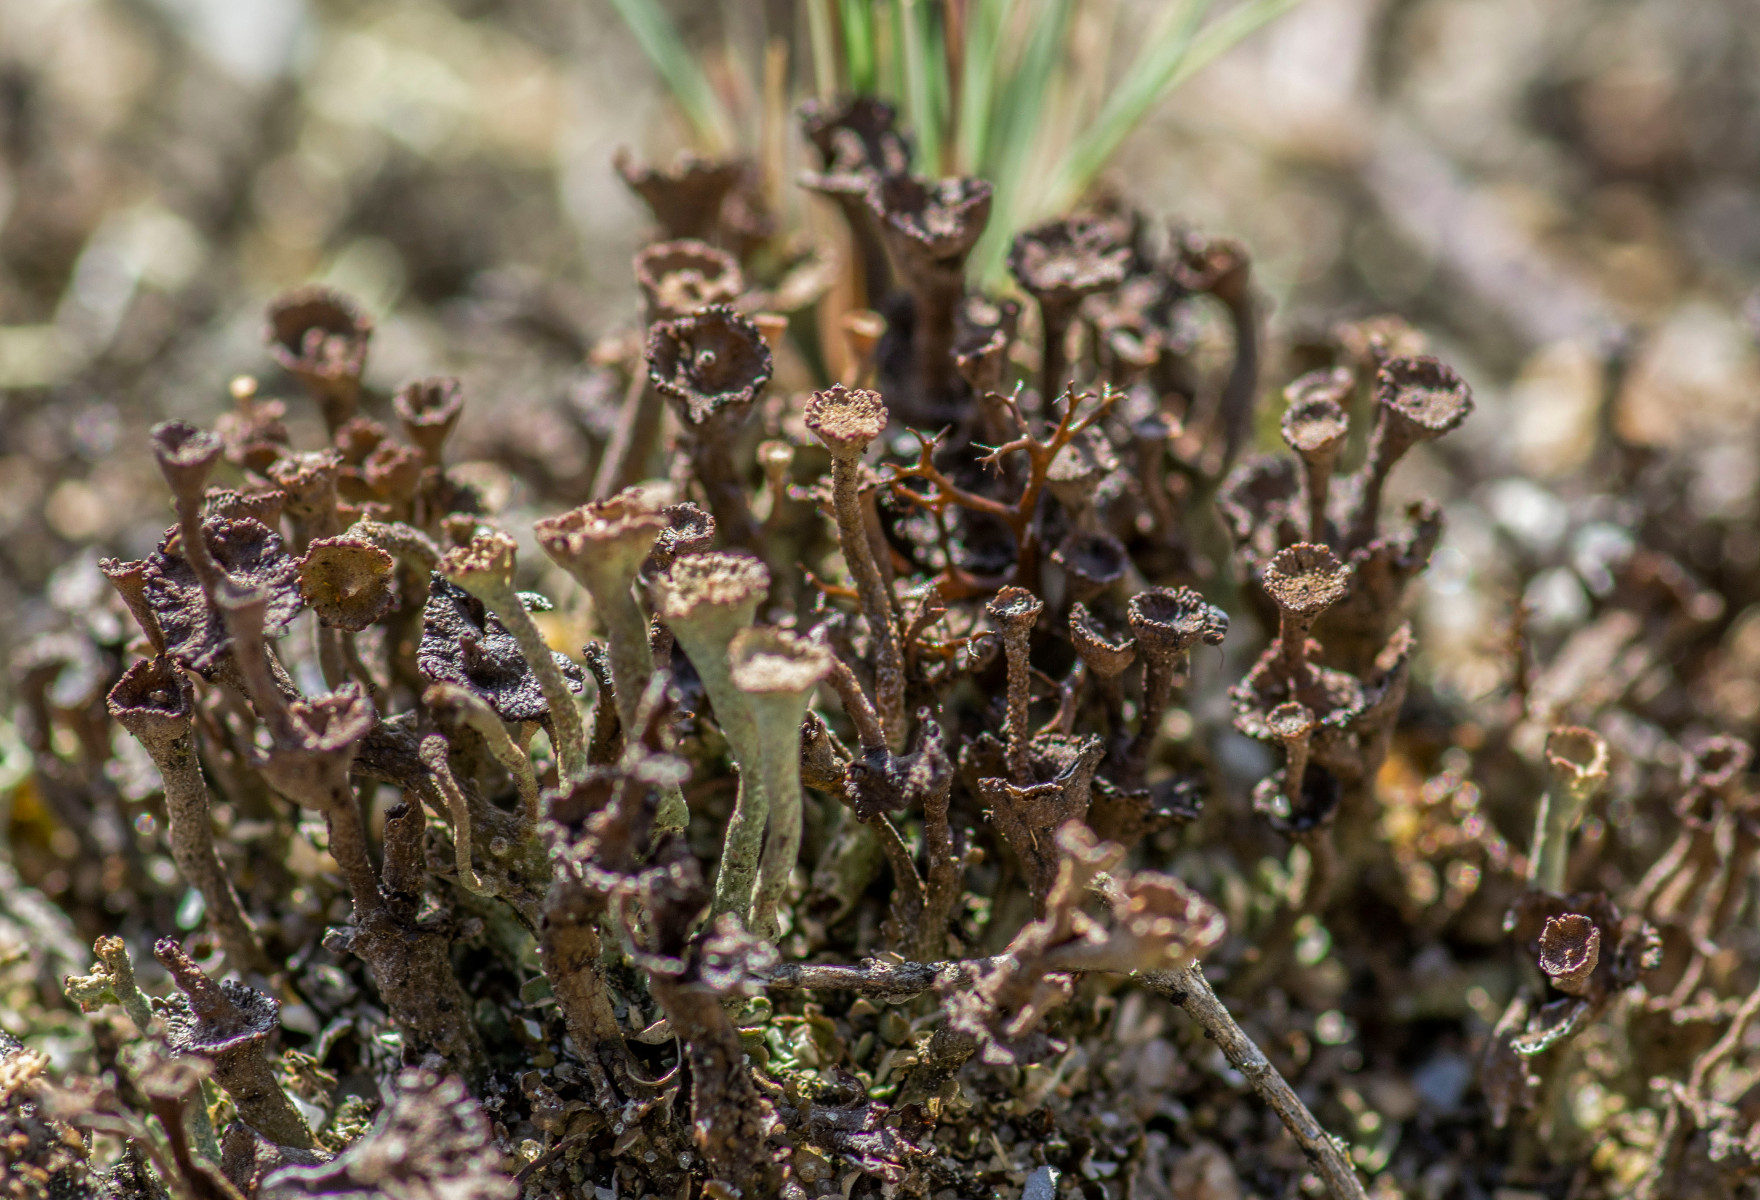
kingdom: Fungi
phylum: Ascomycota
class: Lecanoromycetes
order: Lecanorales
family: Cladoniaceae
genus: Cladonia
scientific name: Cladonia cervicornis
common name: gevir-bægerlav
